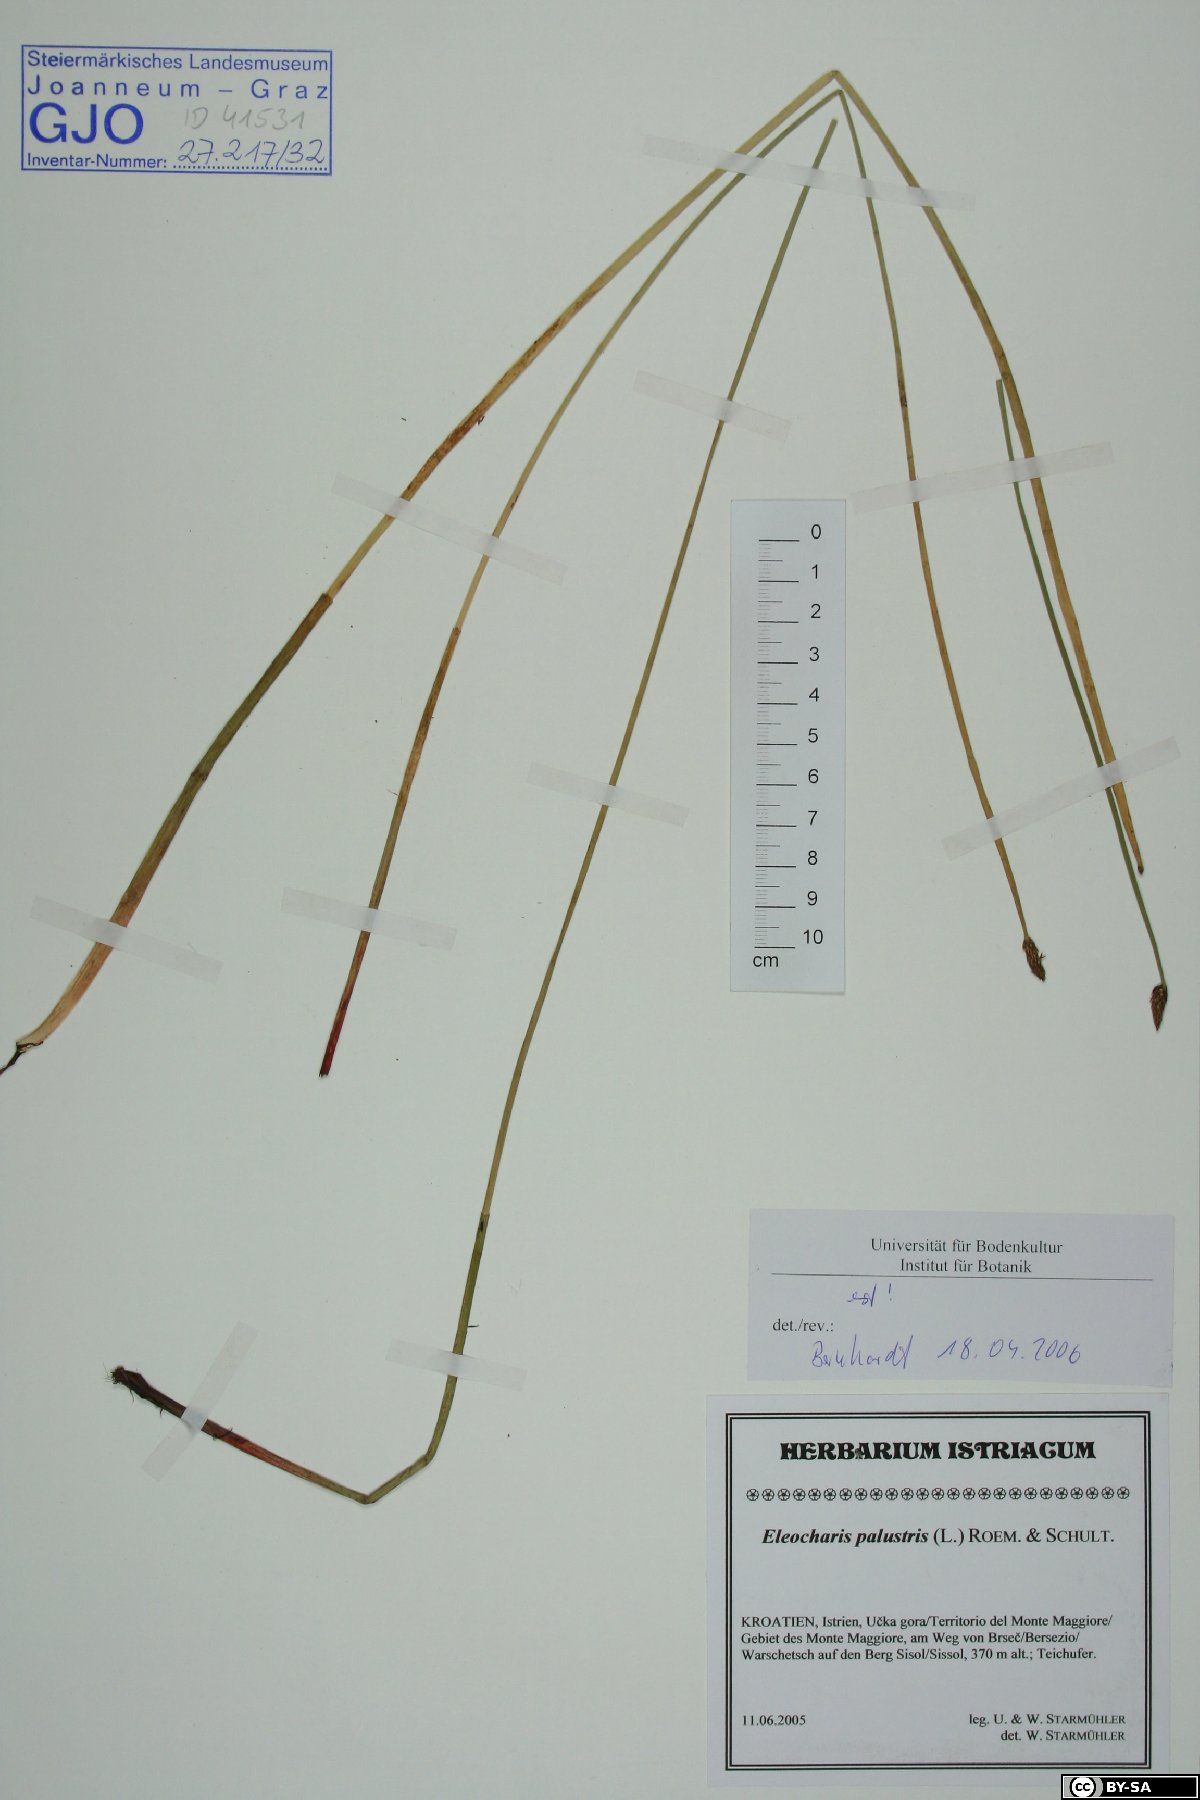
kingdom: Plantae
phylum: Tracheophyta
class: Liliopsida
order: Poales
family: Cyperaceae
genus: Eleocharis
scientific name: Eleocharis palustris
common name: Common spike-rush
